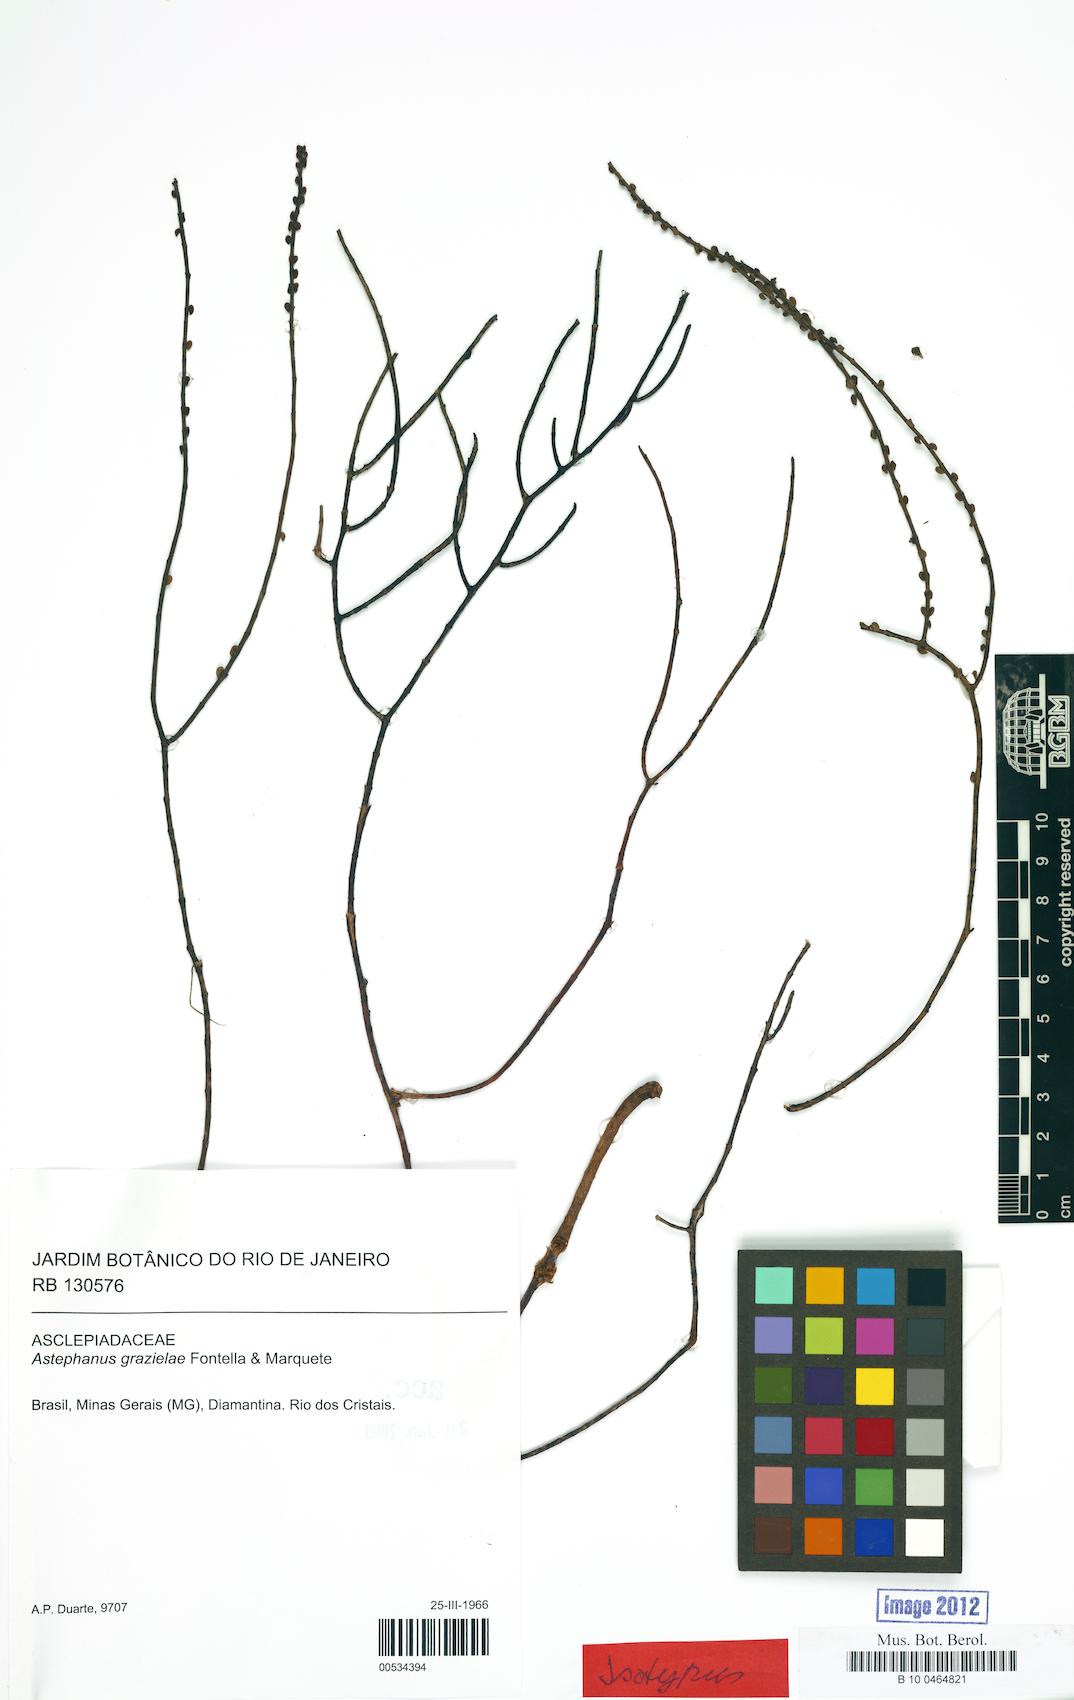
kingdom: Plantae
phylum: Tracheophyta
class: Magnoliopsida
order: Gentianales
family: Apocynaceae
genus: Minaria
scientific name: Minaria grazielae
